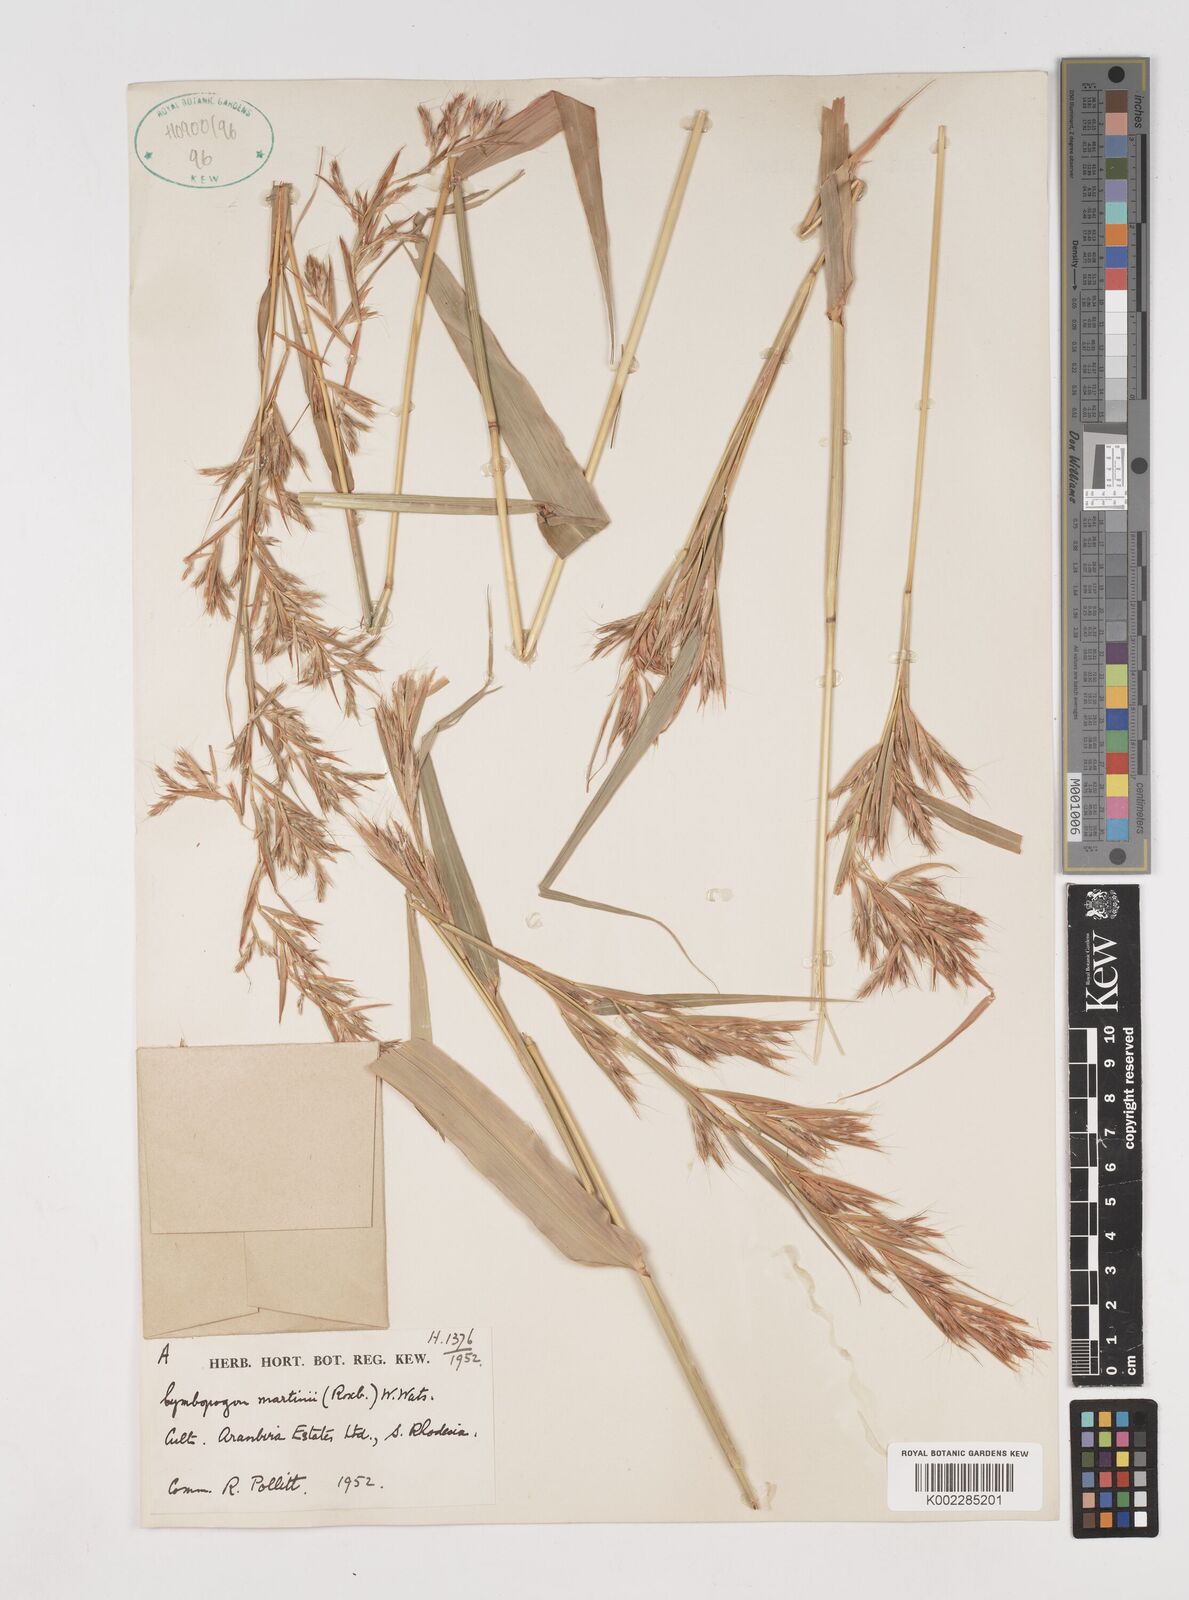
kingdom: Plantae
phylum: Tracheophyta
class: Liliopsida
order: Poales
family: Poaceae
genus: Cymbopogon
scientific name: Cymbopogon martini
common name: Ginger grass
